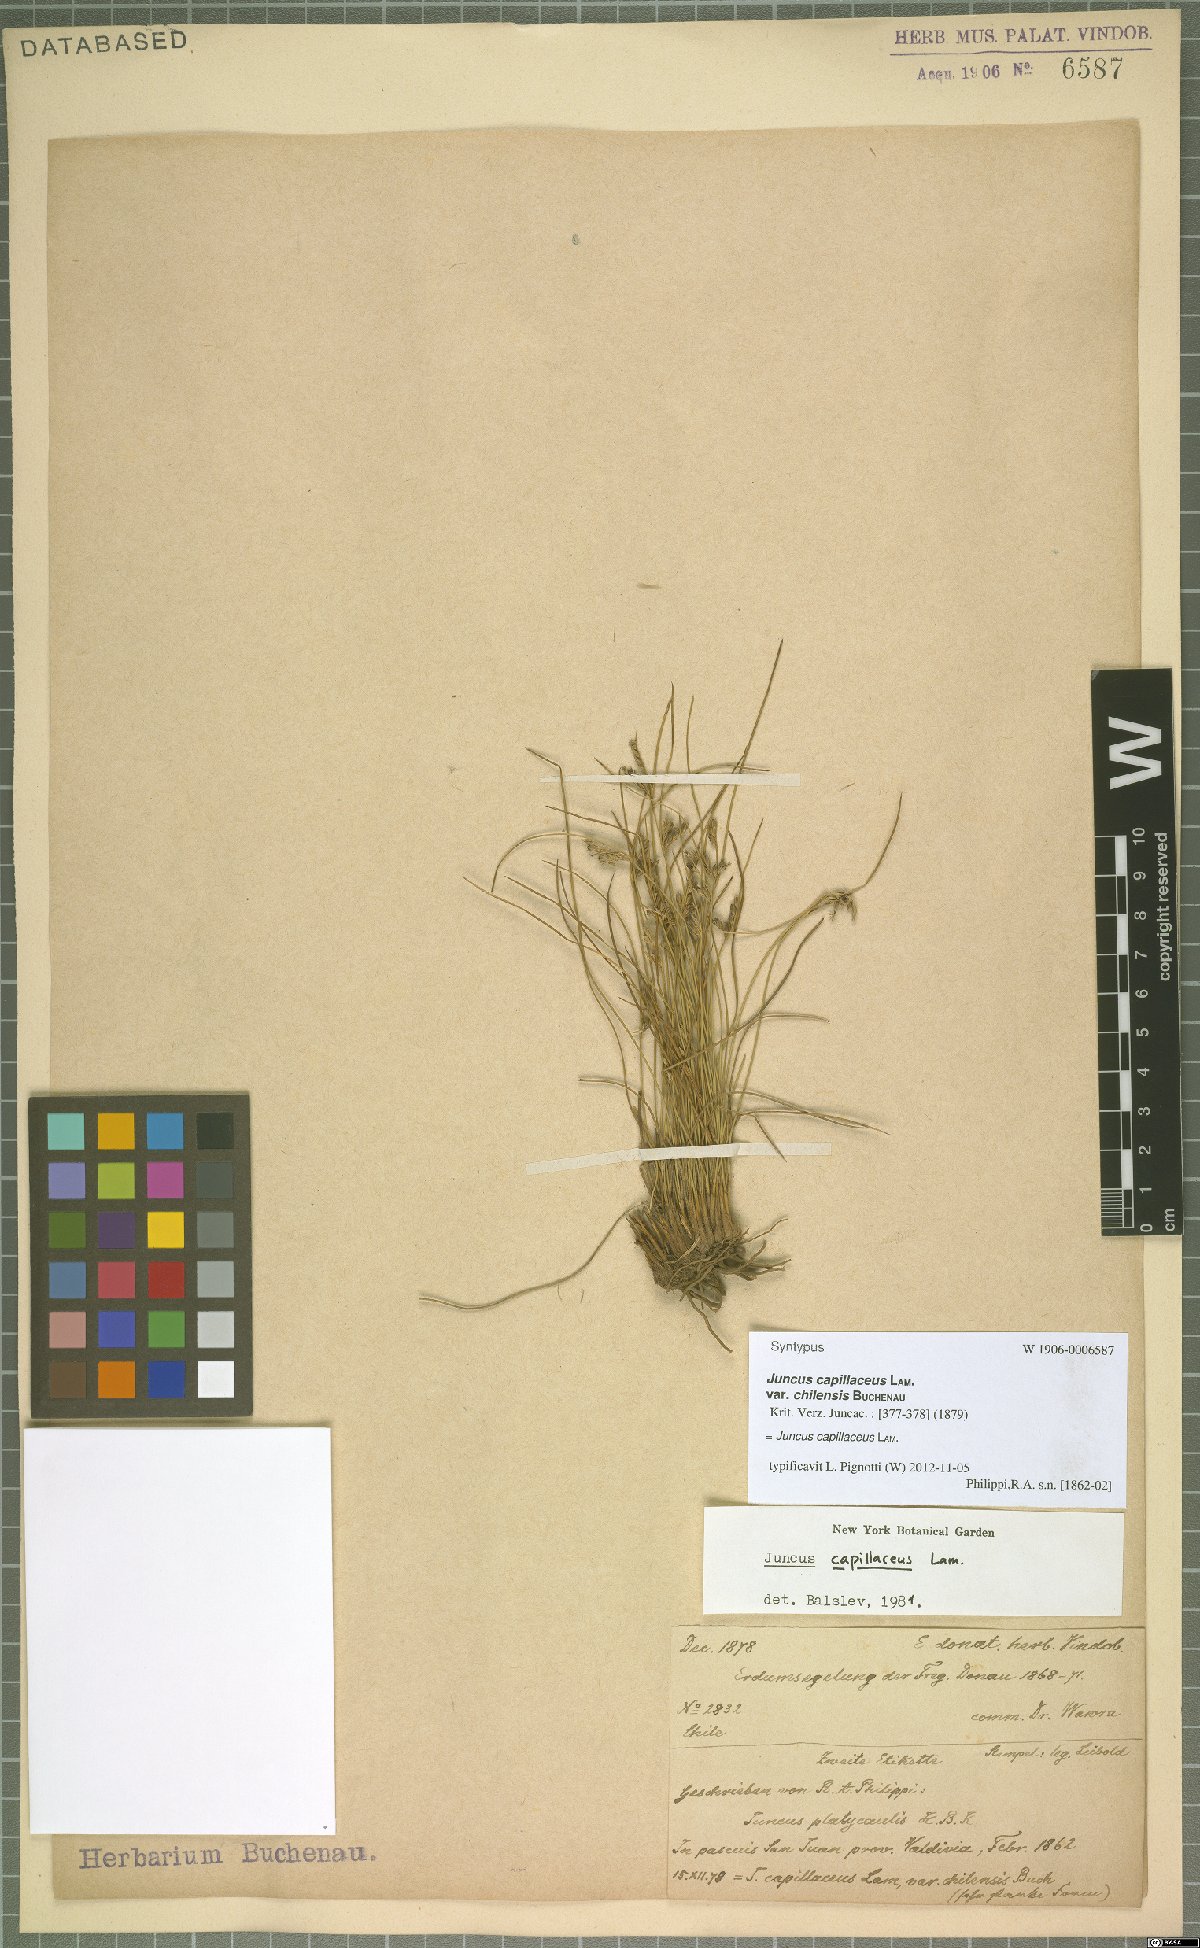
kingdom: Plantae
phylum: Tracheophyta
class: Liliopsida
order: Poales
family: Juncaceae
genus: Juncus
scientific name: Juncus capillaceus
